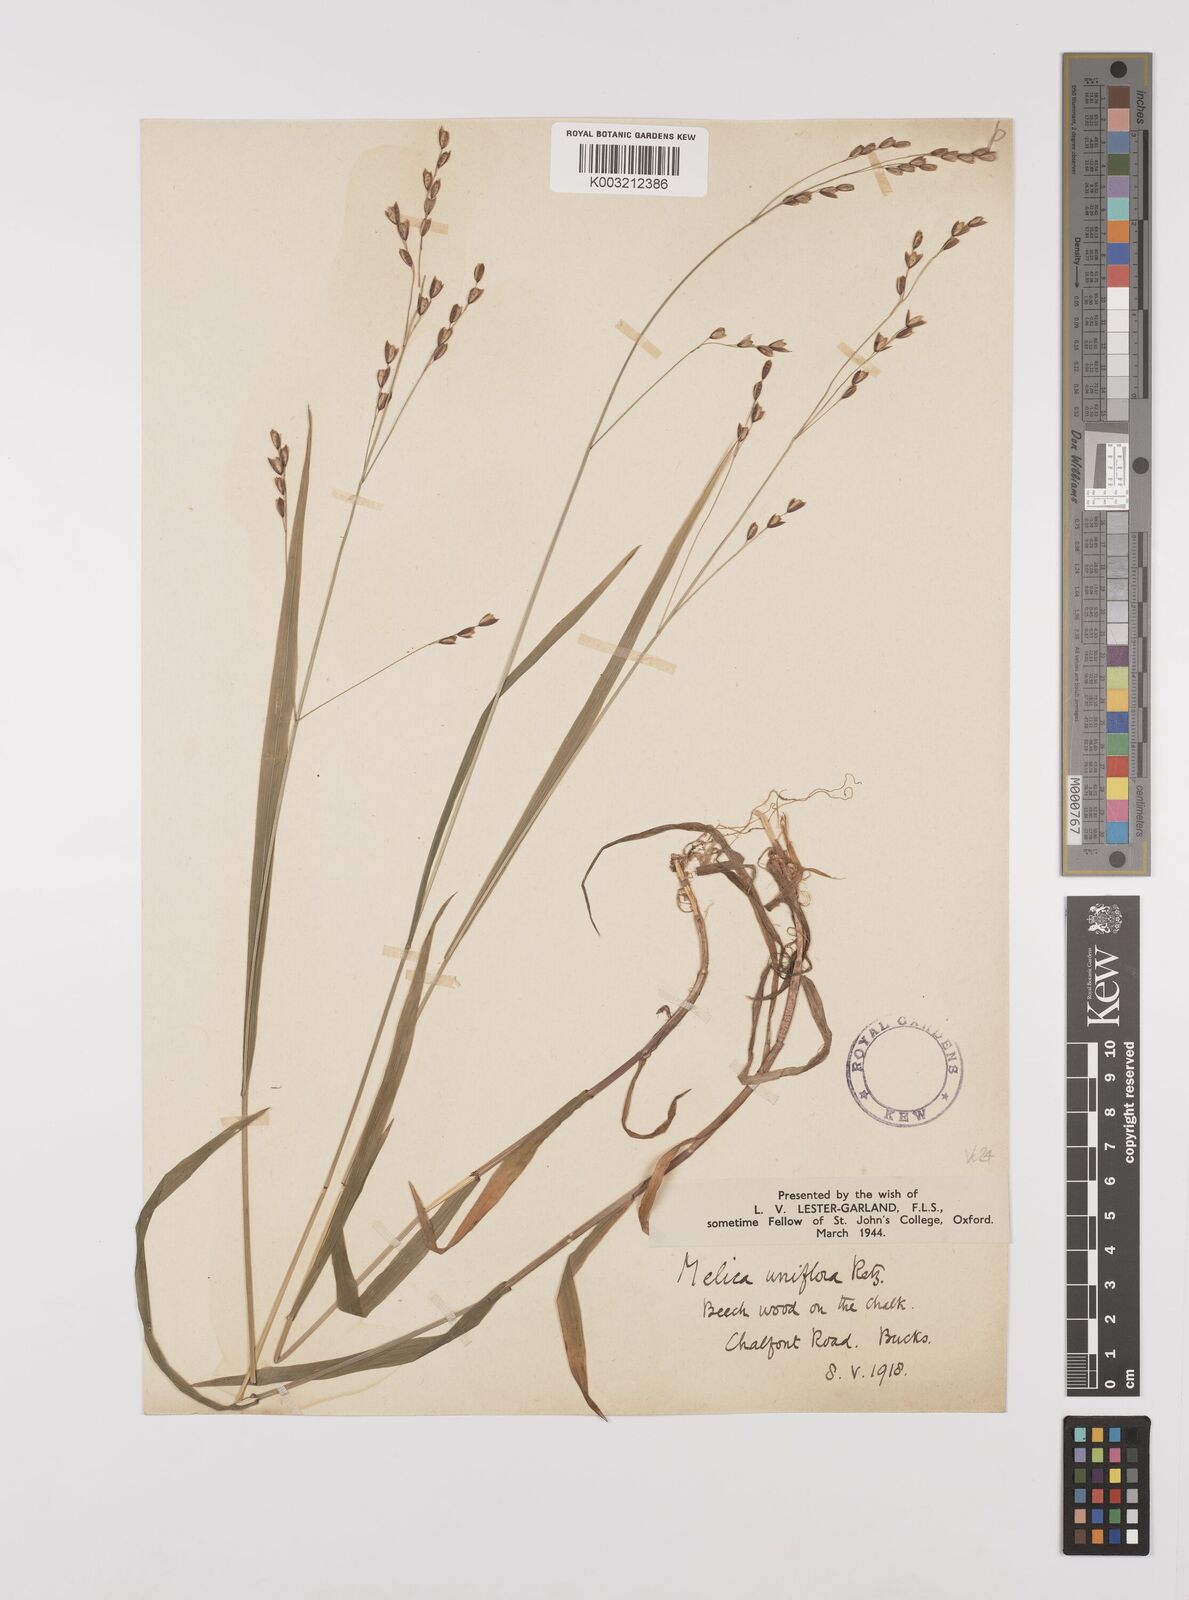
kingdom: Plantae
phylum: Tracheophyta
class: Liliopsida
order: Poales
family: Poaceae
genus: Melica
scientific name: Melica uniflora
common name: Wood melick
